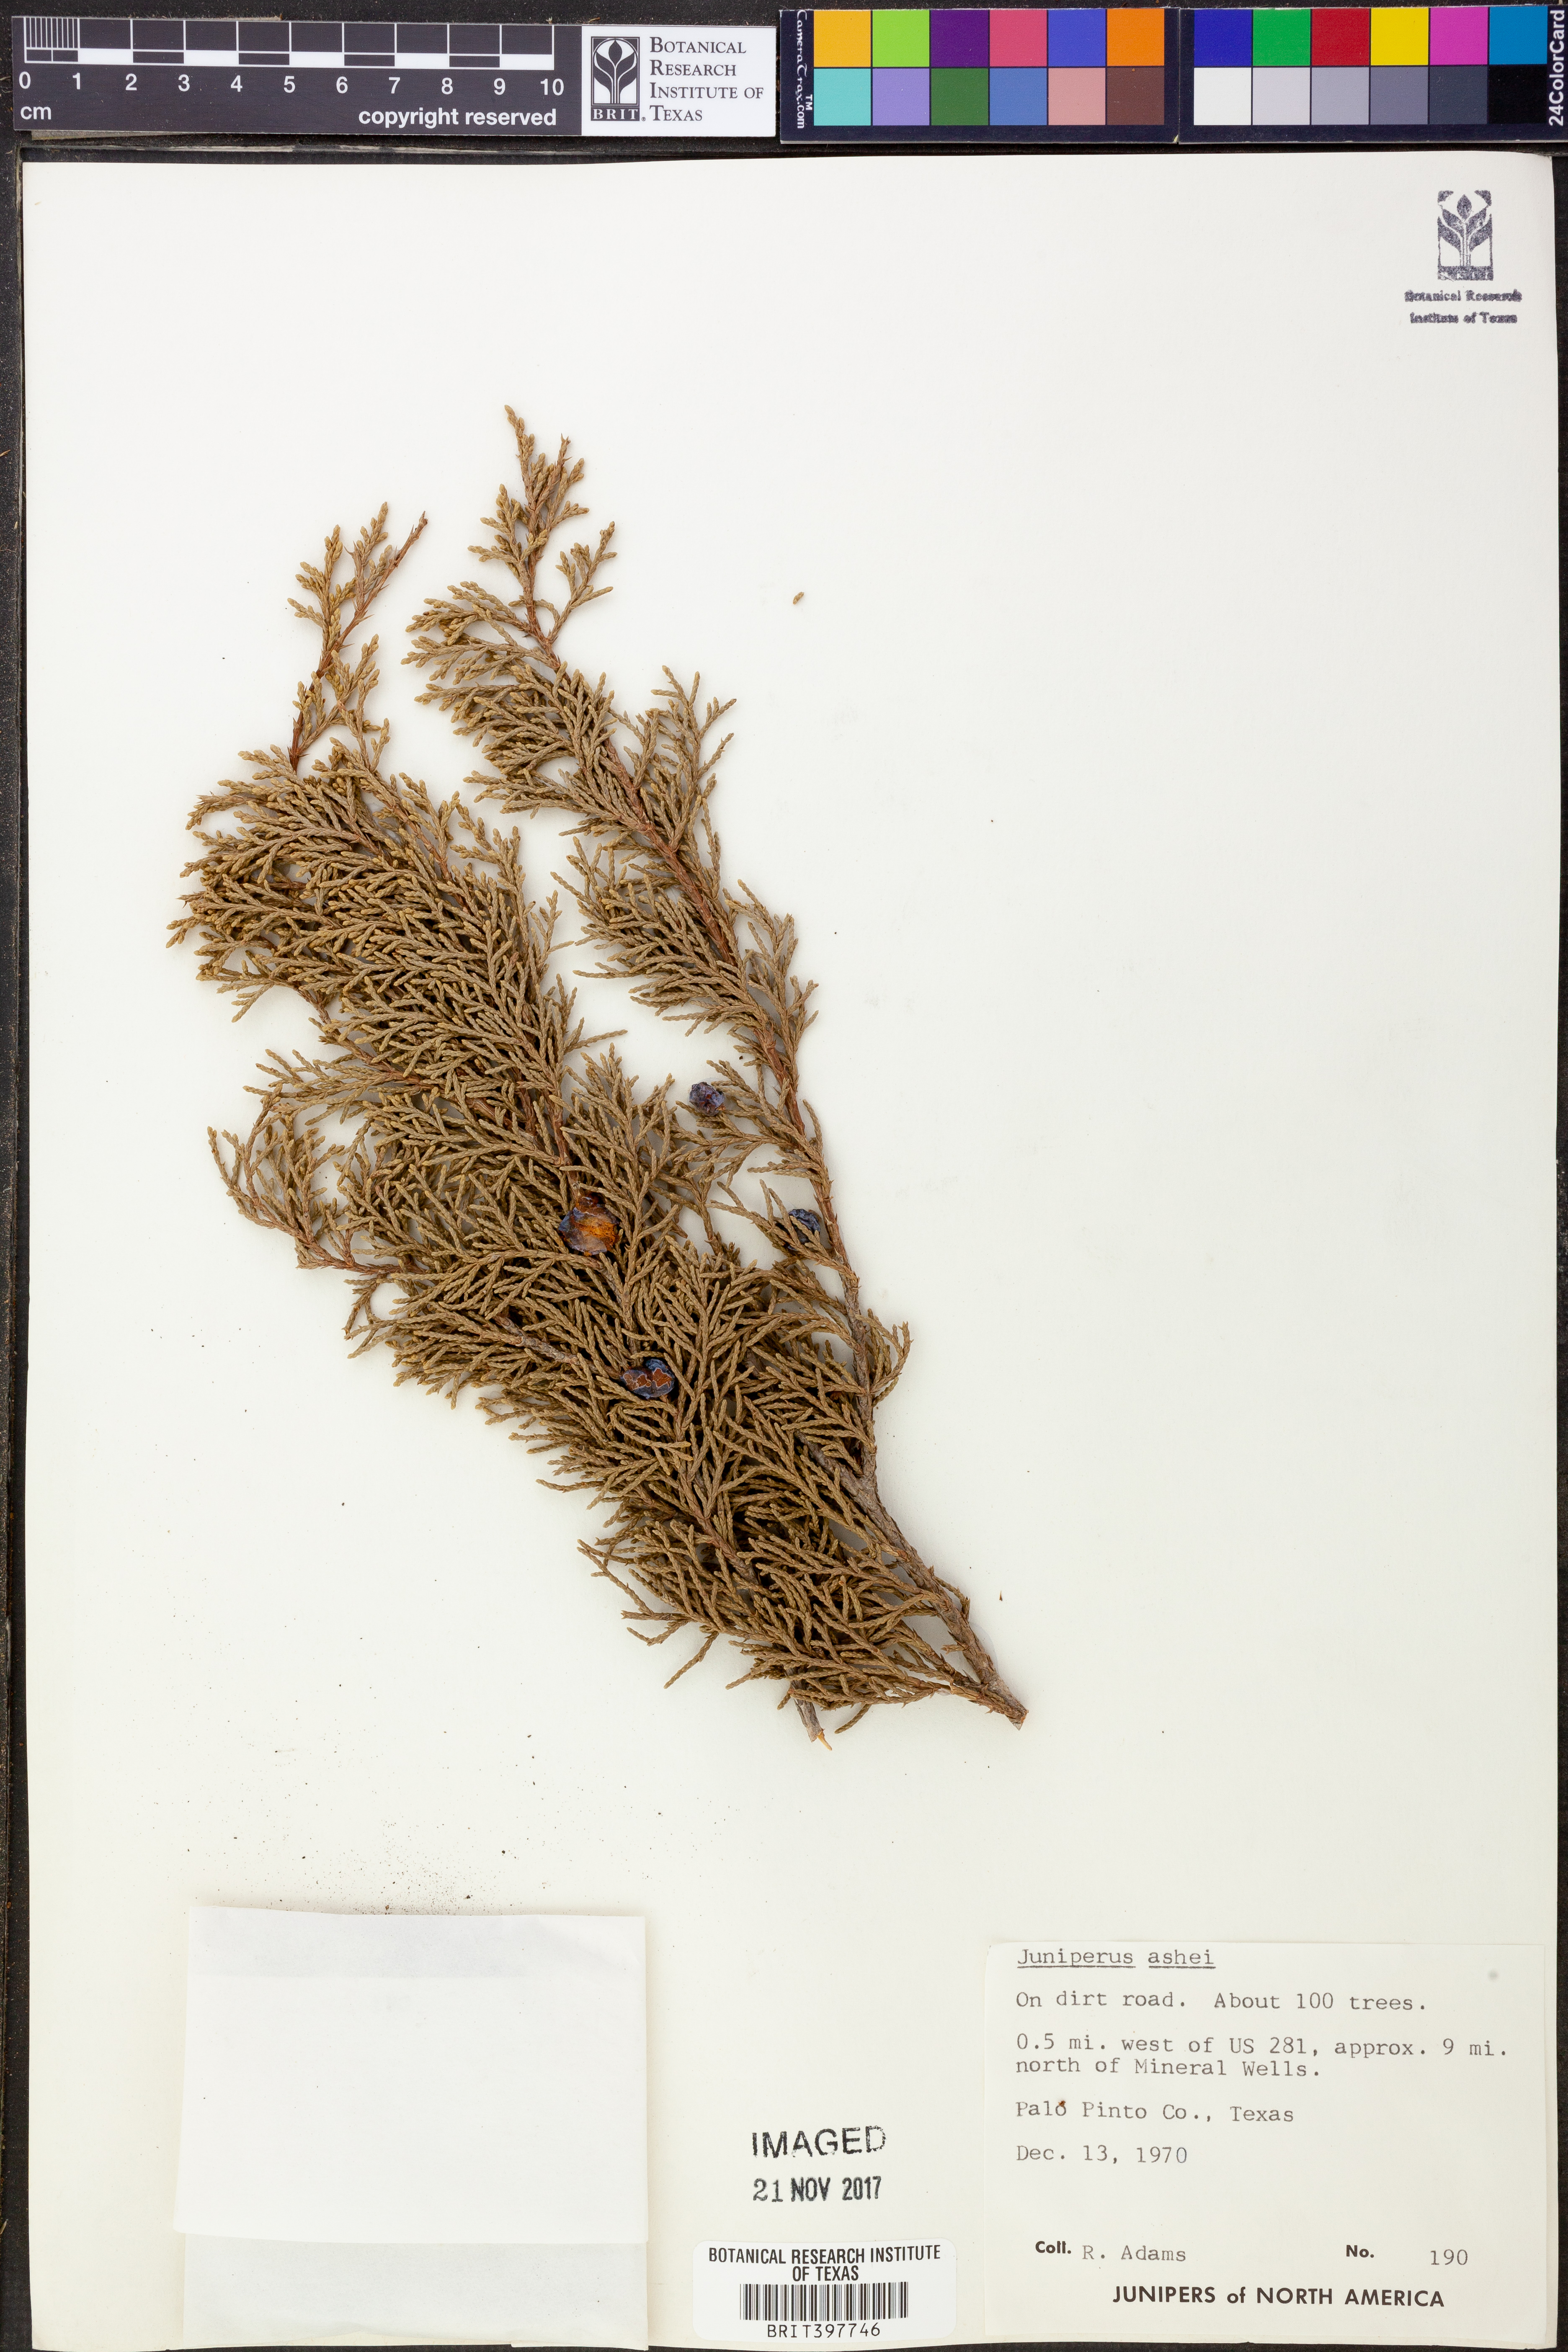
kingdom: Plantae
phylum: Tracheophyta
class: Pinopsida
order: Pinales
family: Cupressaceae
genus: Juniperus
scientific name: Juniperus ashei
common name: Mexican juniper
